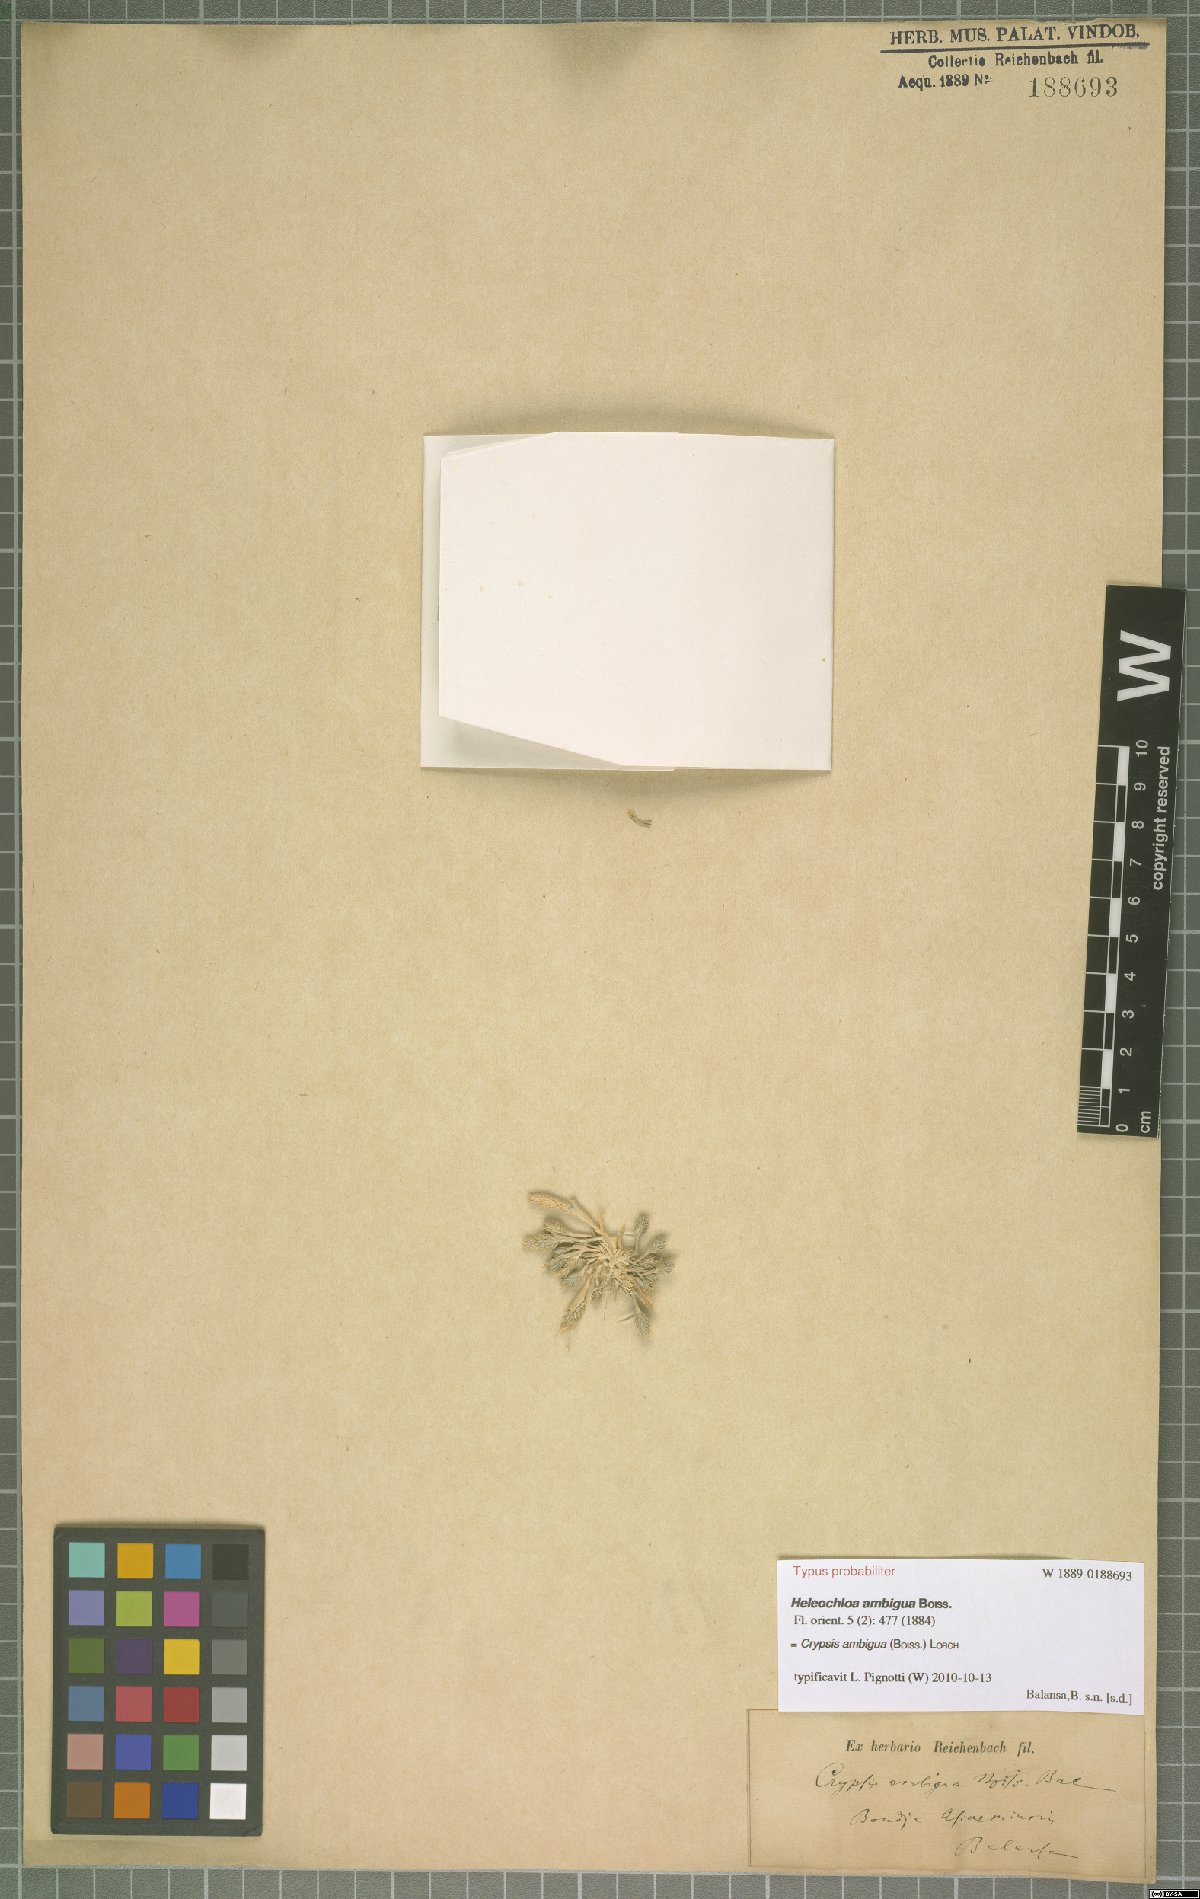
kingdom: Plantae
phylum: Tracheophyta
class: Liliopsida
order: Poales
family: Poaceae
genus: Sporobolus
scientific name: Sporobolus borszczowii
